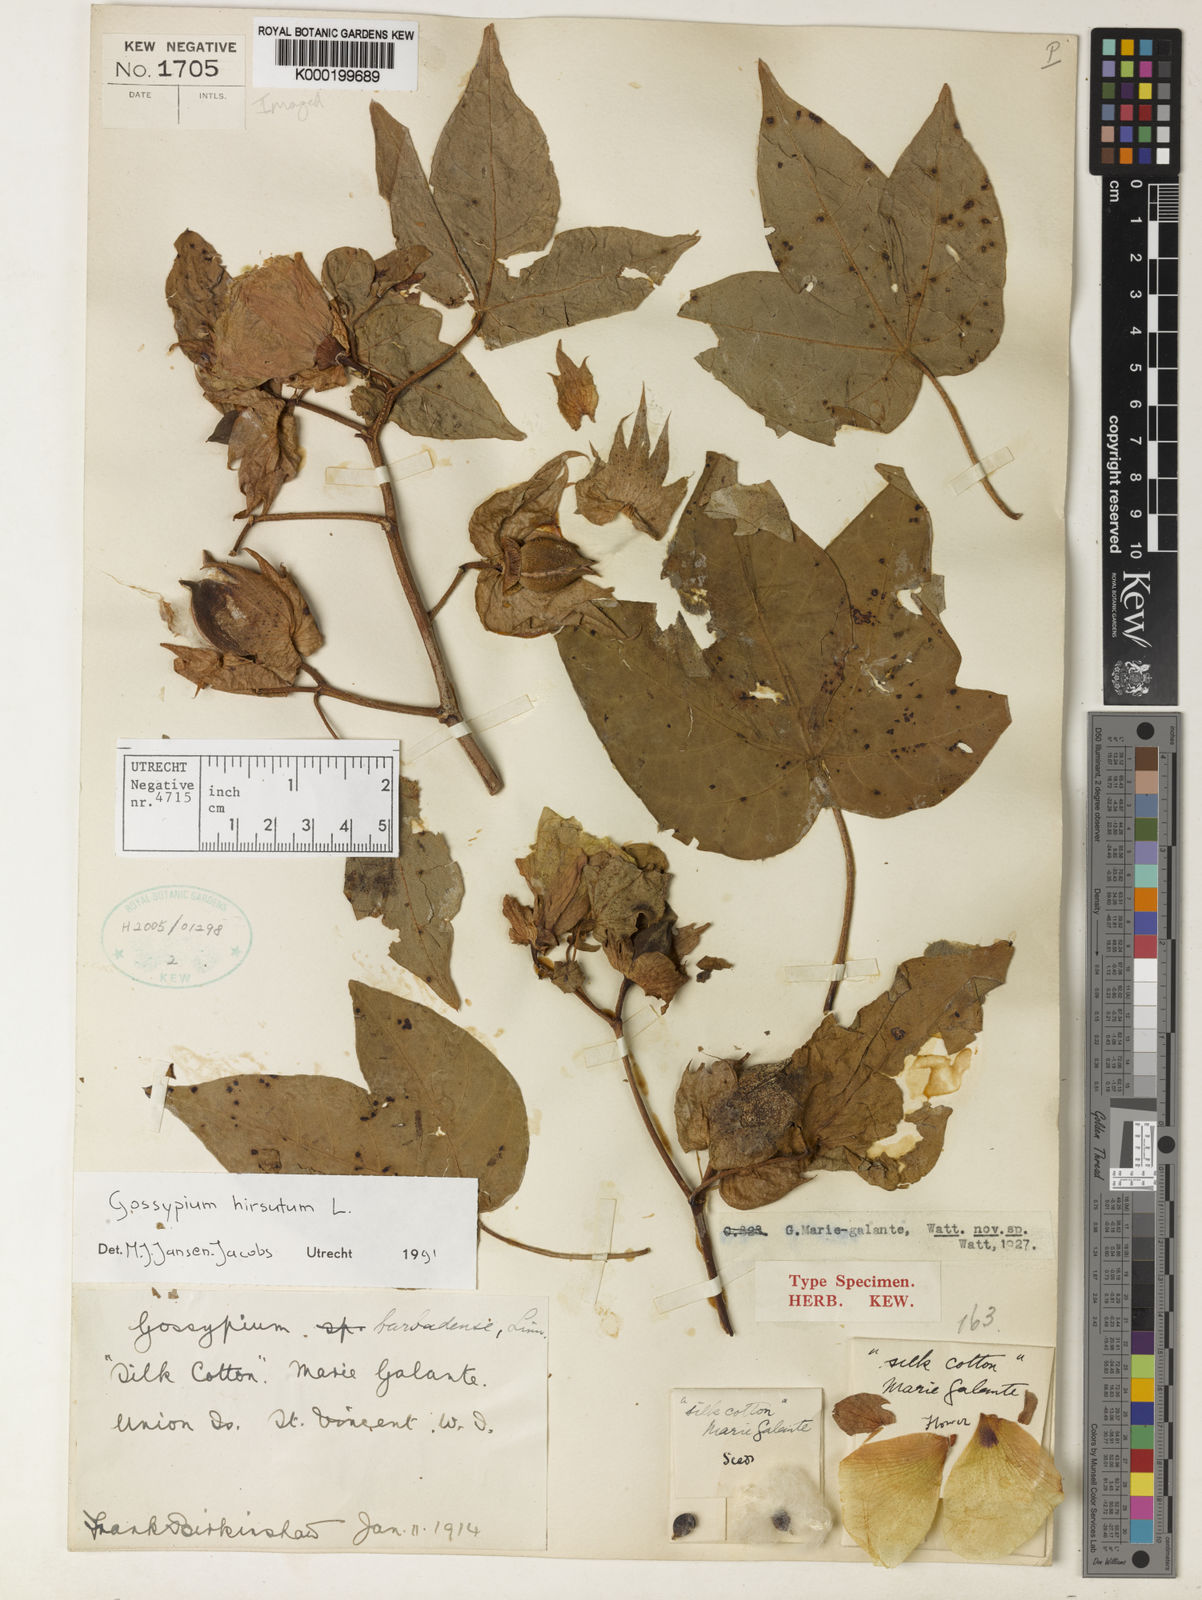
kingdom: Plantae
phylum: Tracheophyta
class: Magnoliopsida
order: Malvales
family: Malvaceae
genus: Gossypium
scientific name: Gossypium hirsutum
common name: Cotton
